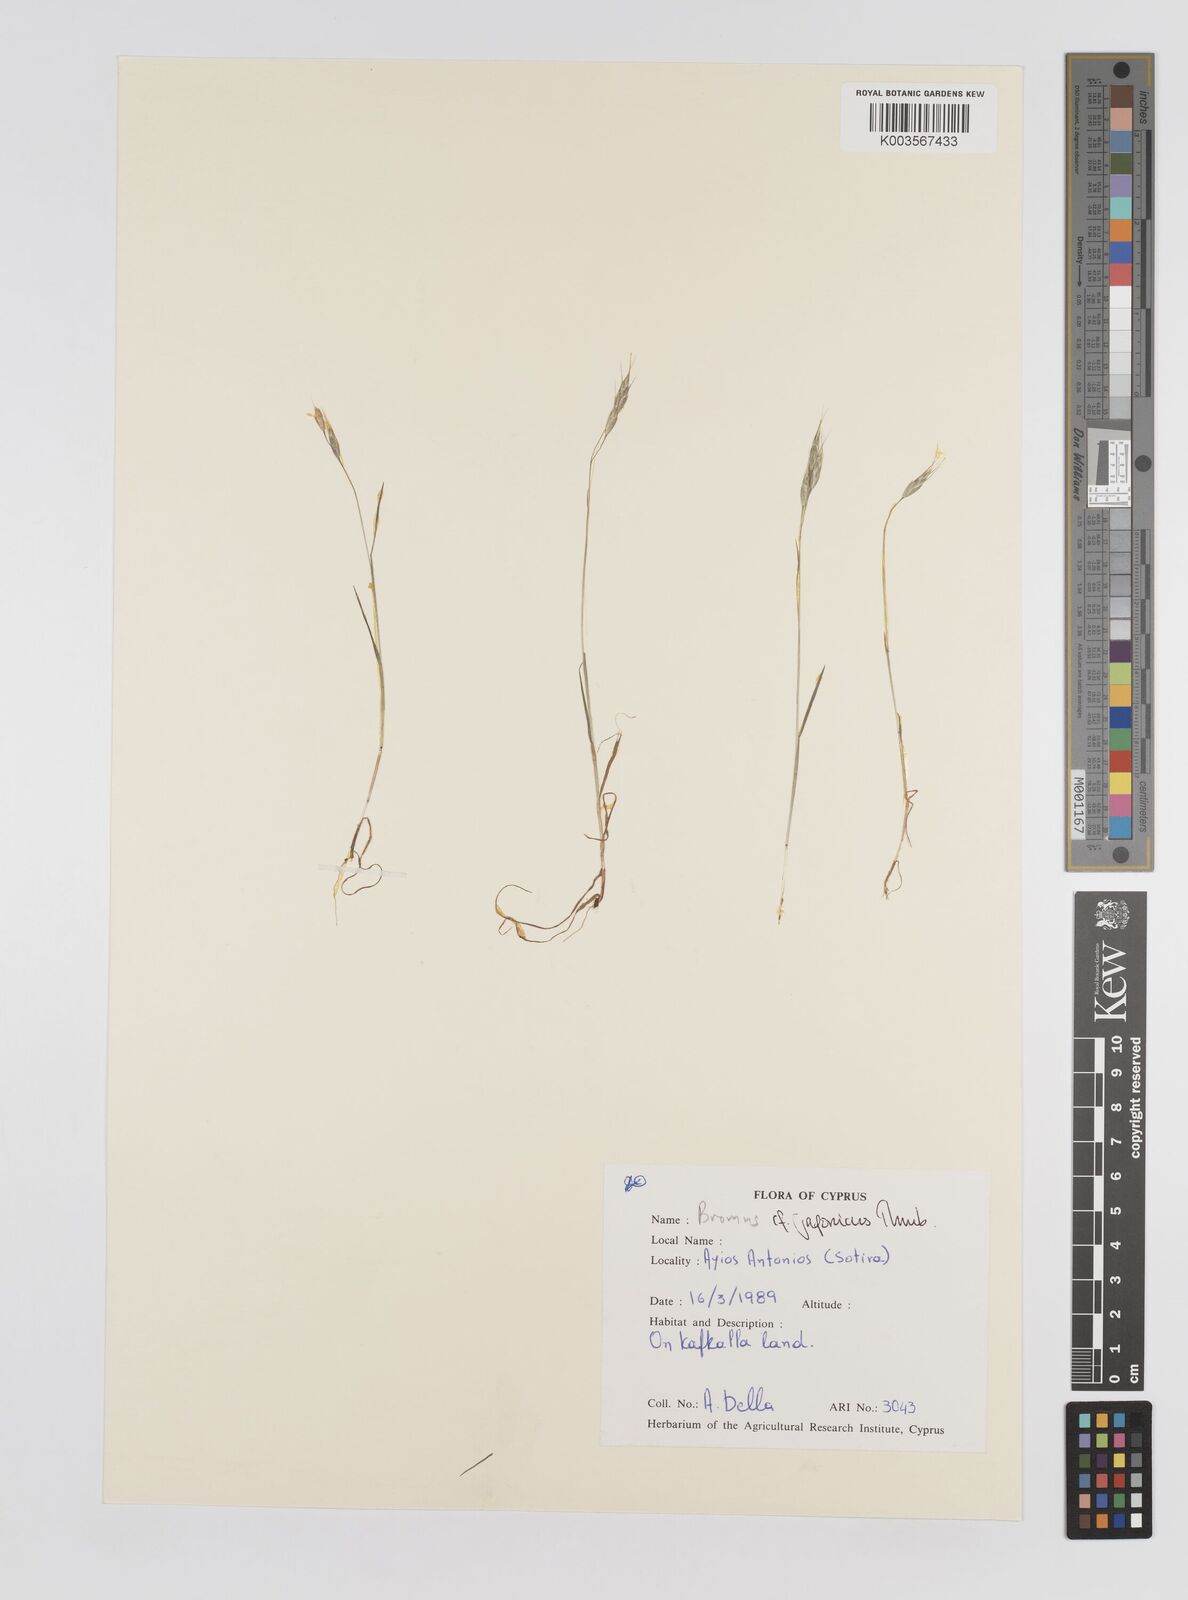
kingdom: Plantae
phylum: Tracheophyta
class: Liliopsida
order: Poales
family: Poaceae
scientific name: Poaceae
